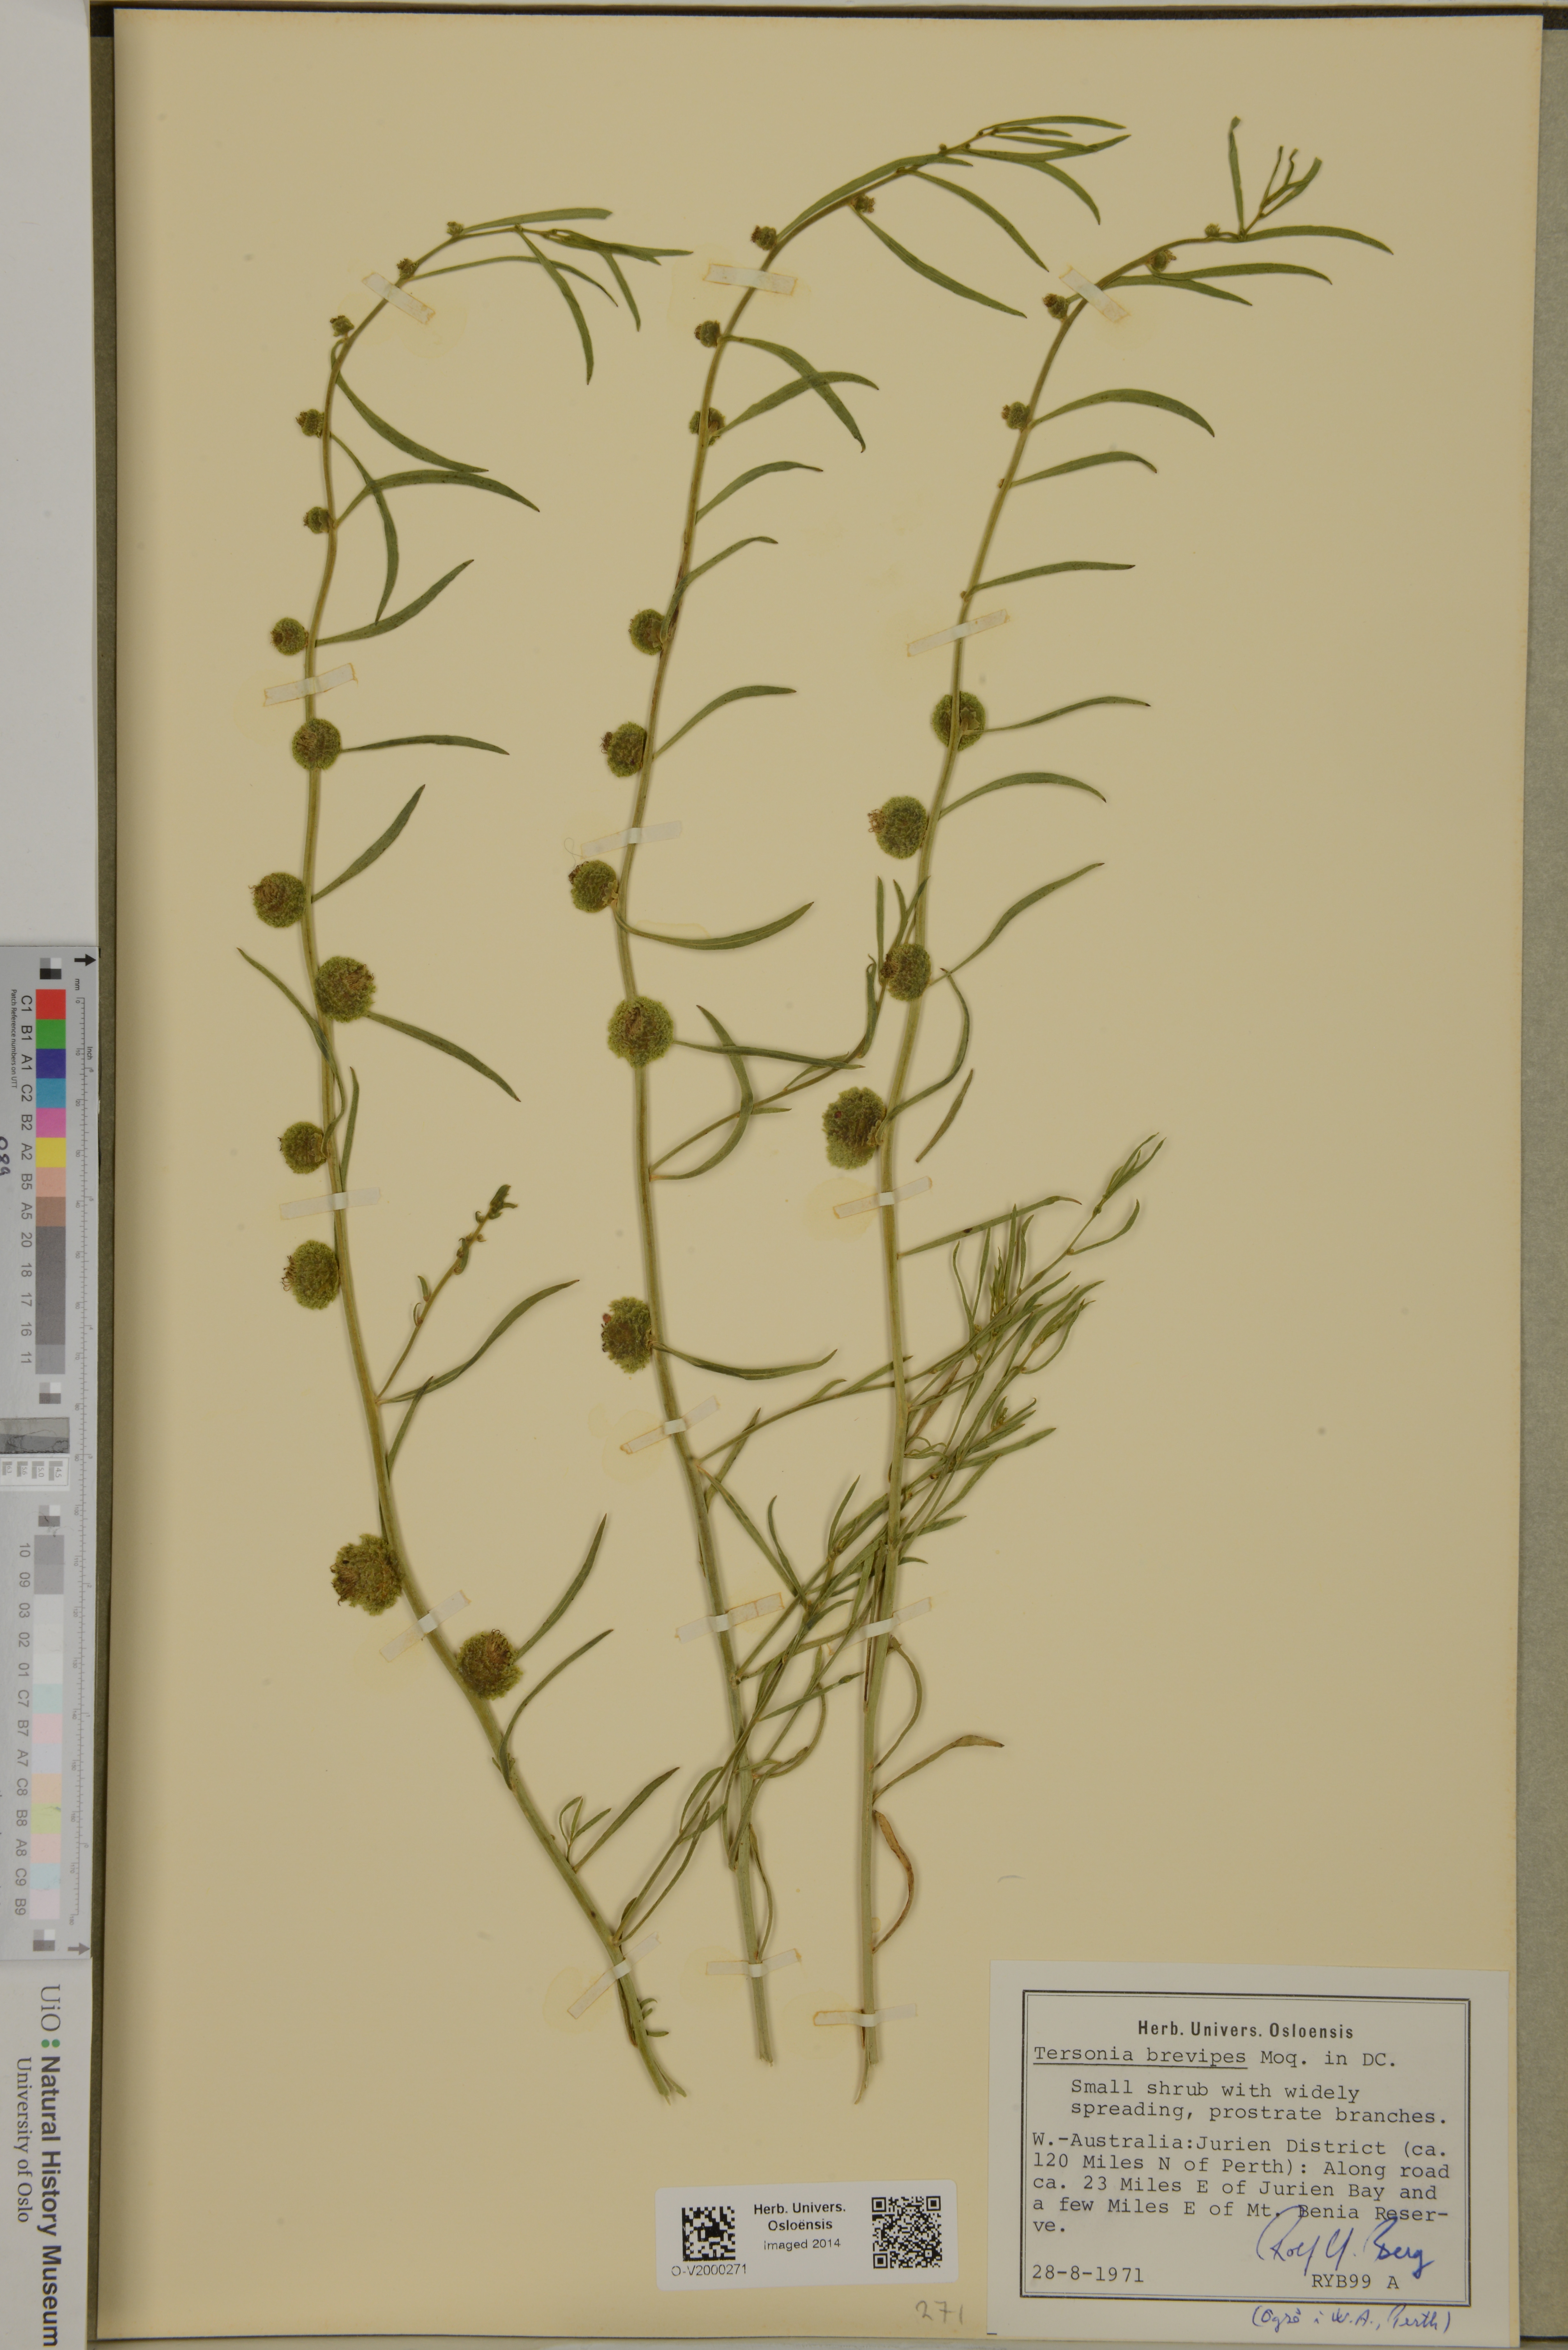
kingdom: Plantae
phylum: Tracheophyta
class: Magnoliopsida
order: Brassicales
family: Gyrostemonaceae
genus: Tersonia
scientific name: Tersonia brevipes
